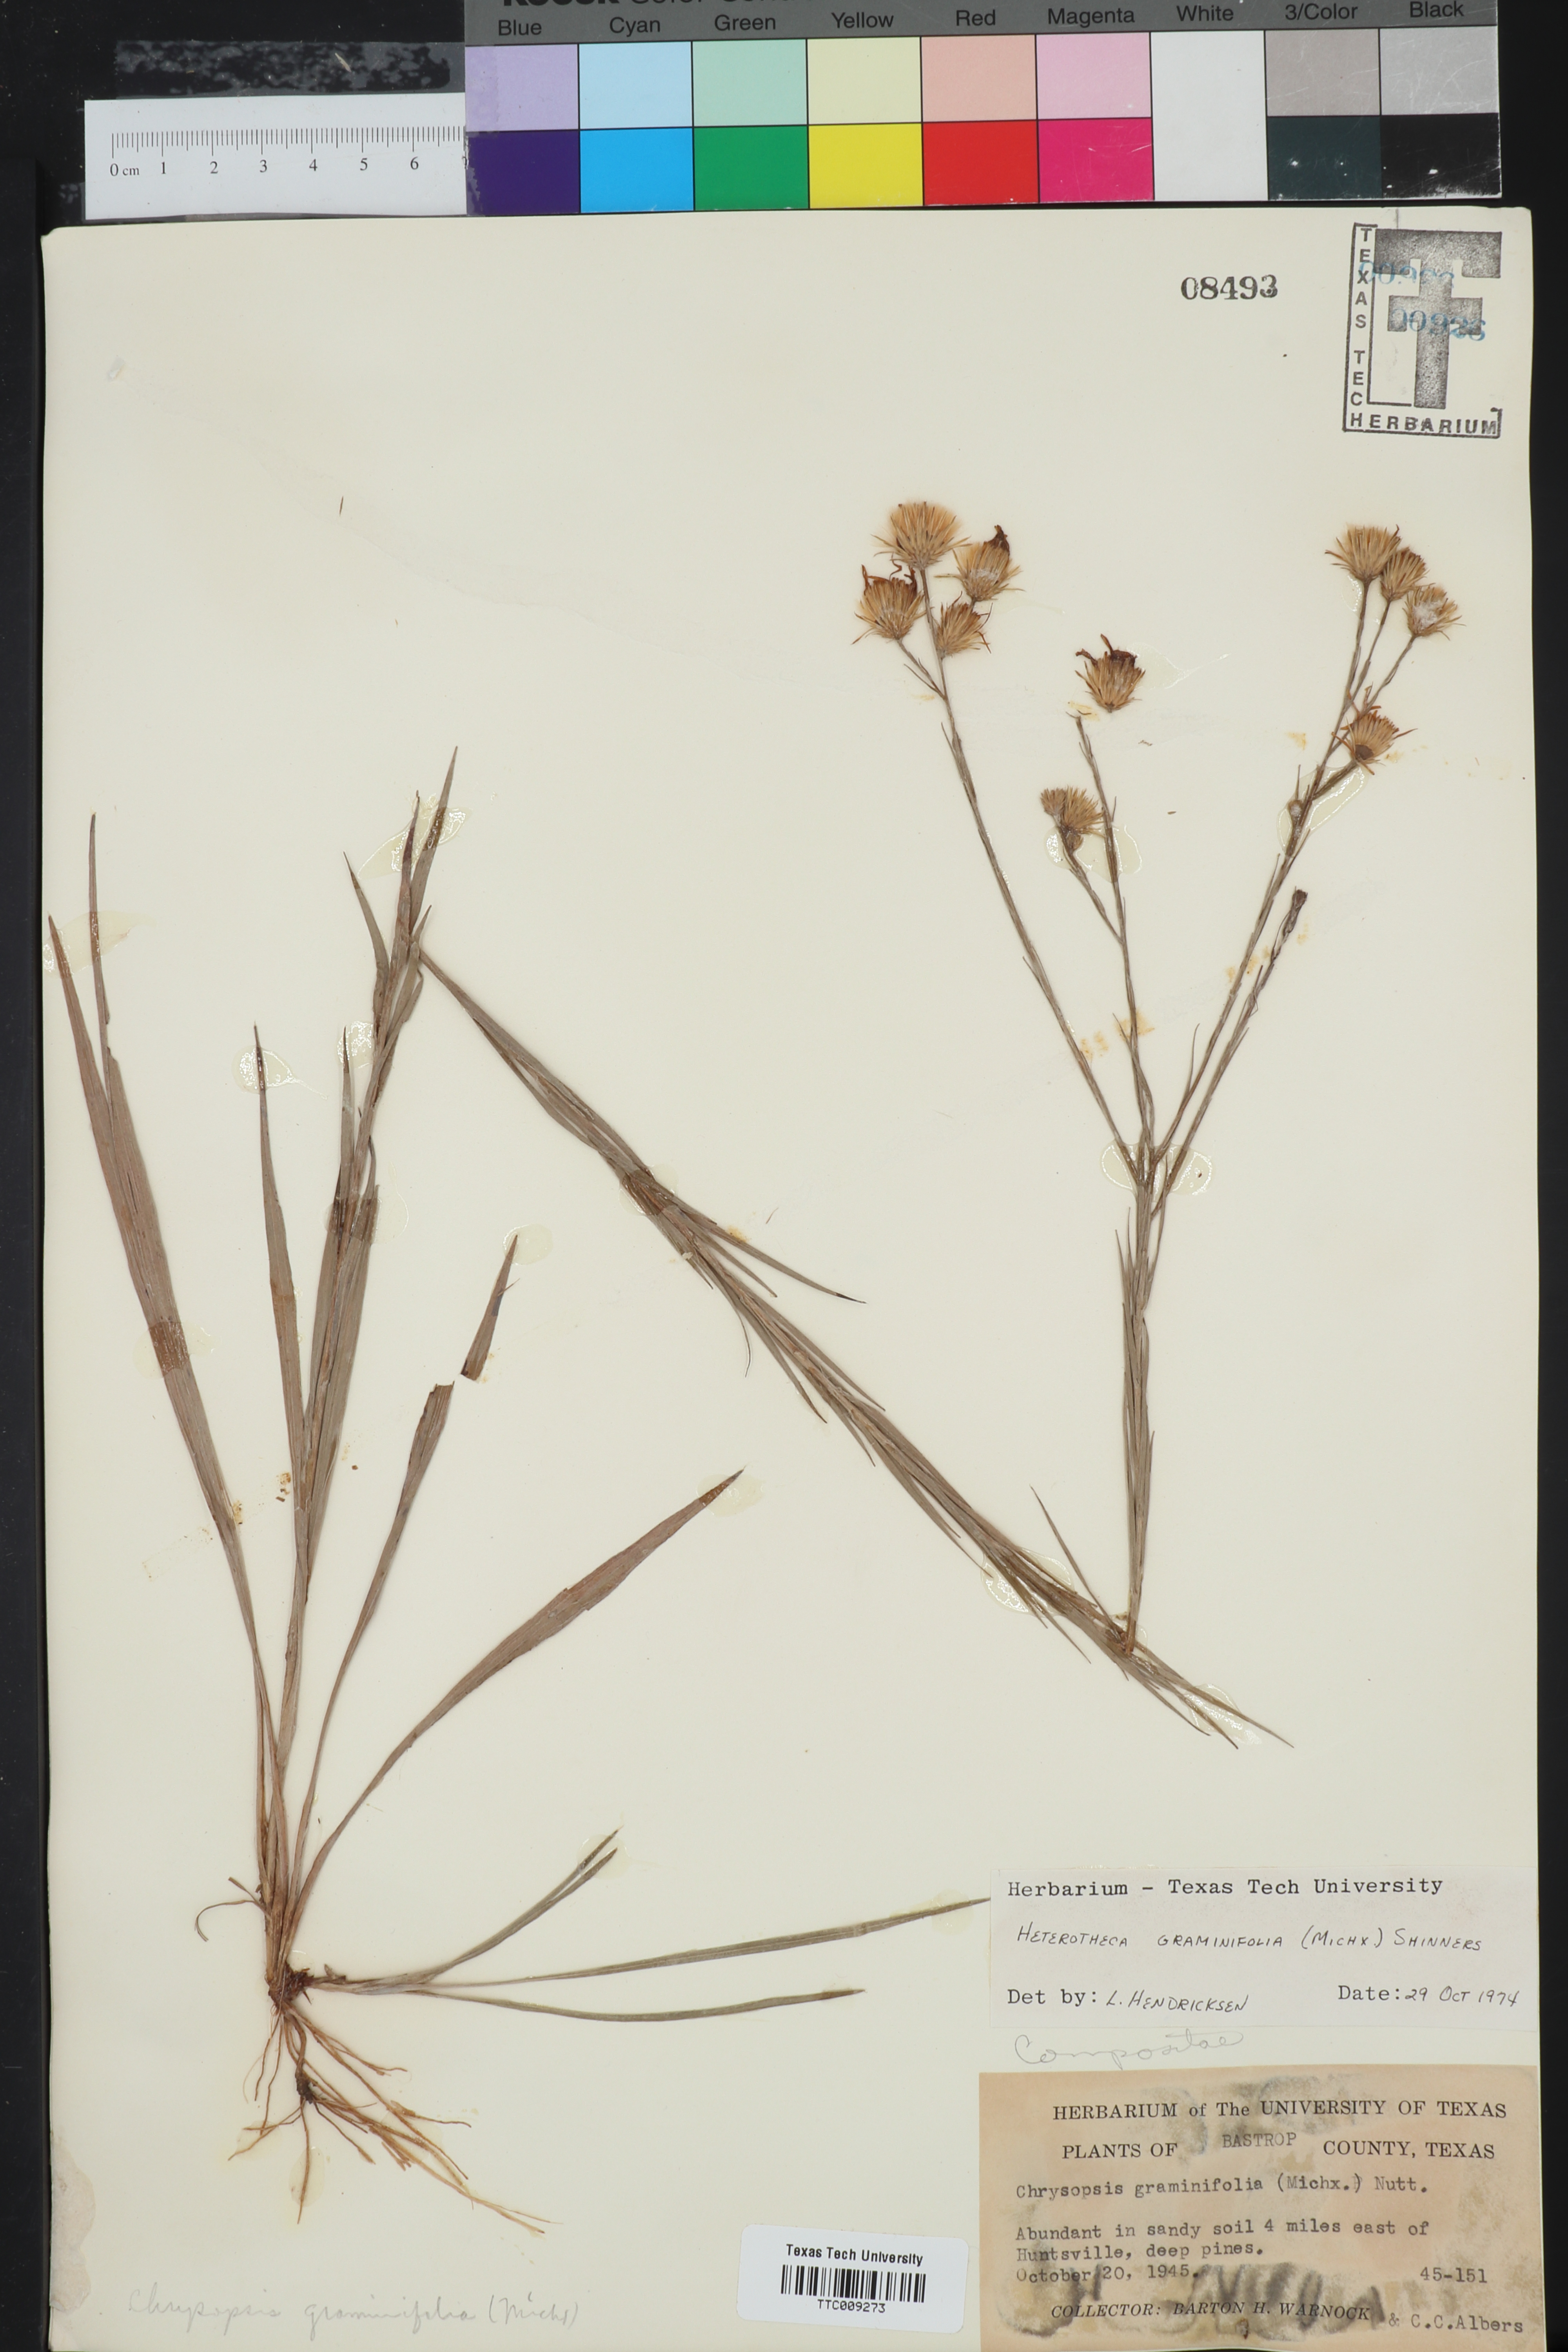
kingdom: Plantae
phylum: Tracheophyta
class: Magnoliopsida
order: Asterales
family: Asteraceae
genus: Pityopsis
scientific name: Pityopsis graminifolia
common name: Grass-leaf golden-aster
